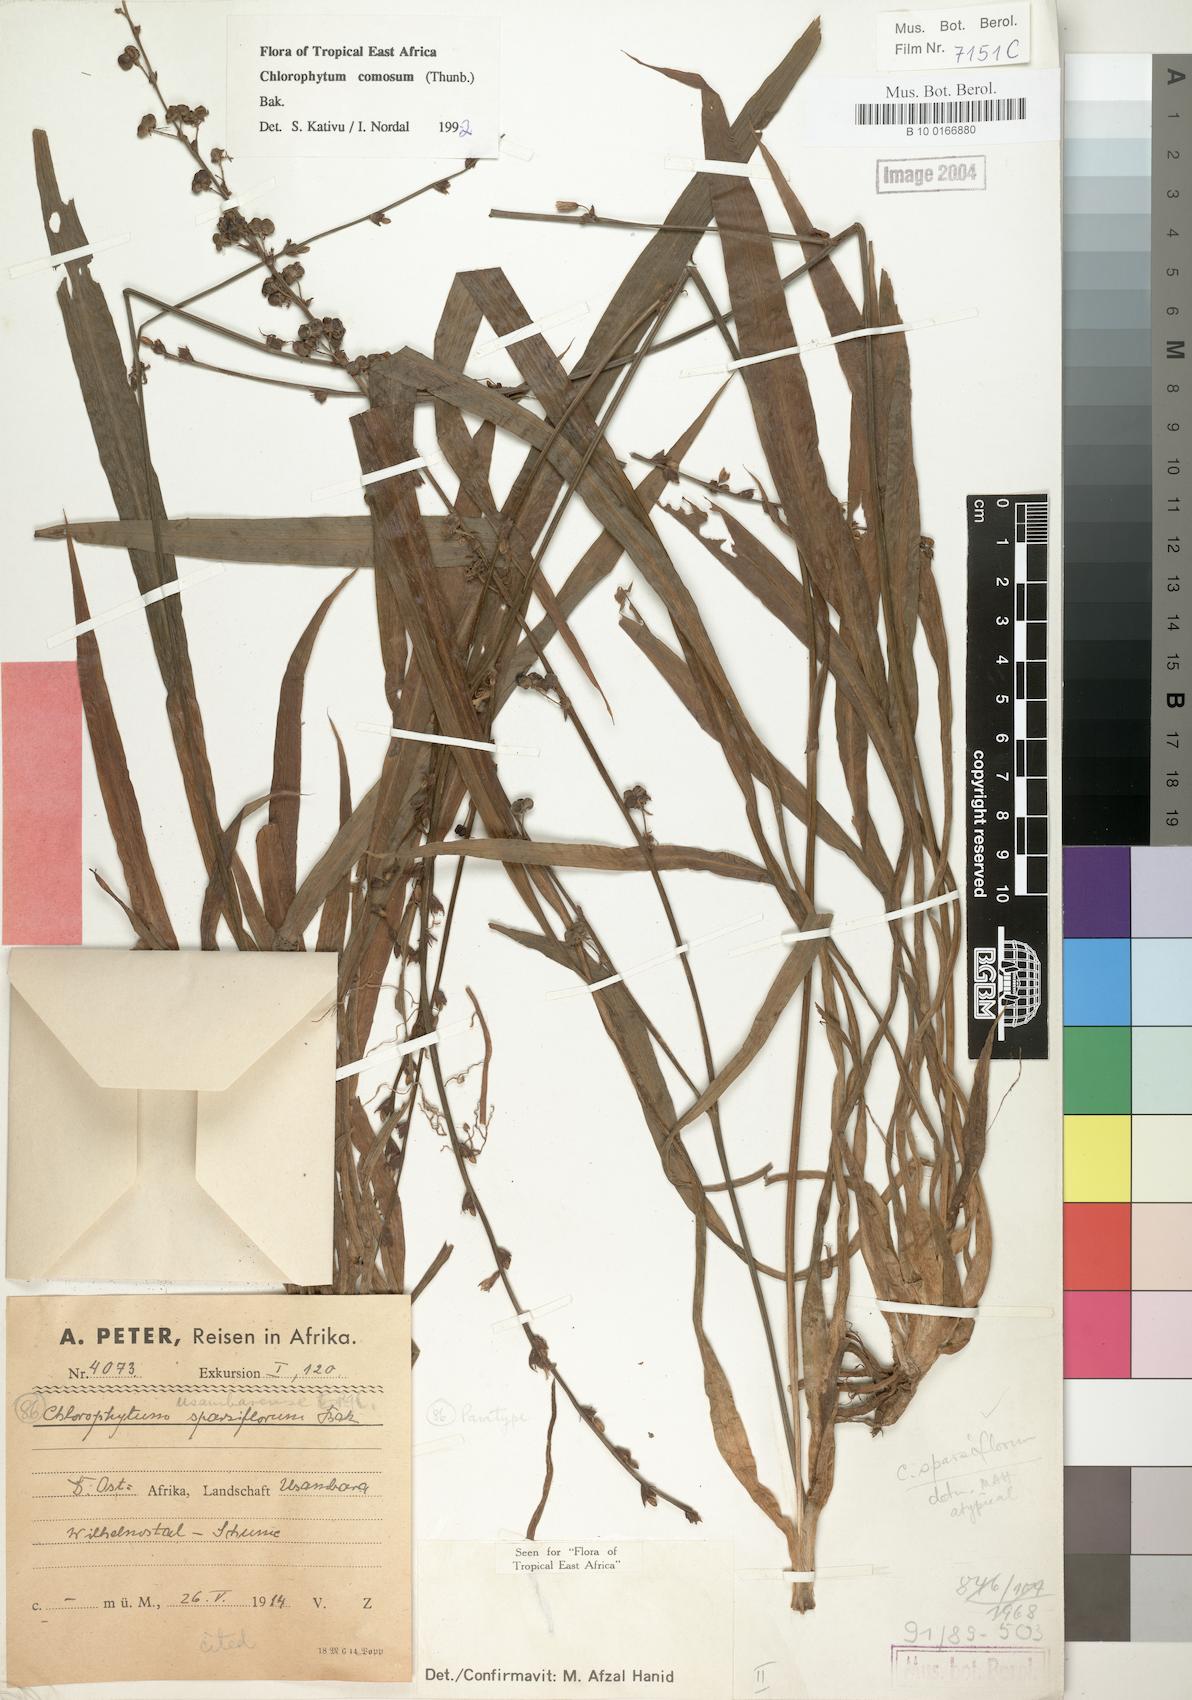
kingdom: Plantae
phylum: Tracheophyta
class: Liliopsida
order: Asparagales
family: Asparagaceae
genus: Chlorophytum
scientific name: Chlorophytum comosum
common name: Spider plant
